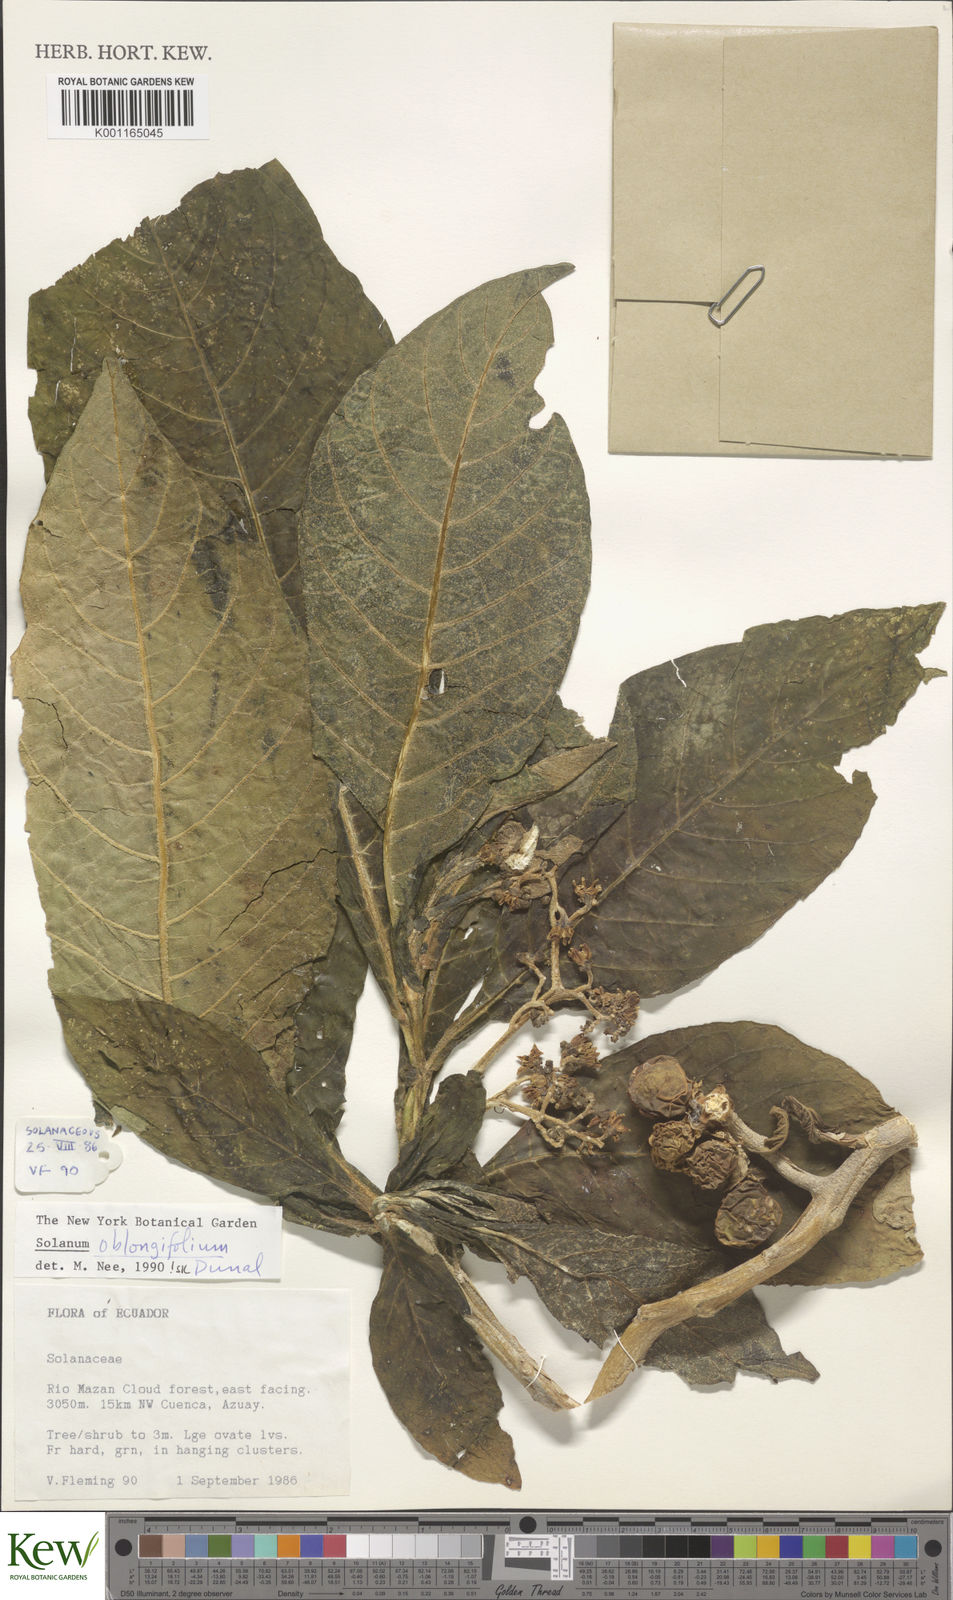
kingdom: Plantae
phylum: Tracheophyta
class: Magnoliopsida
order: Solanales
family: Solanaceae
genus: Solanum
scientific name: Solanum oblongifolium
